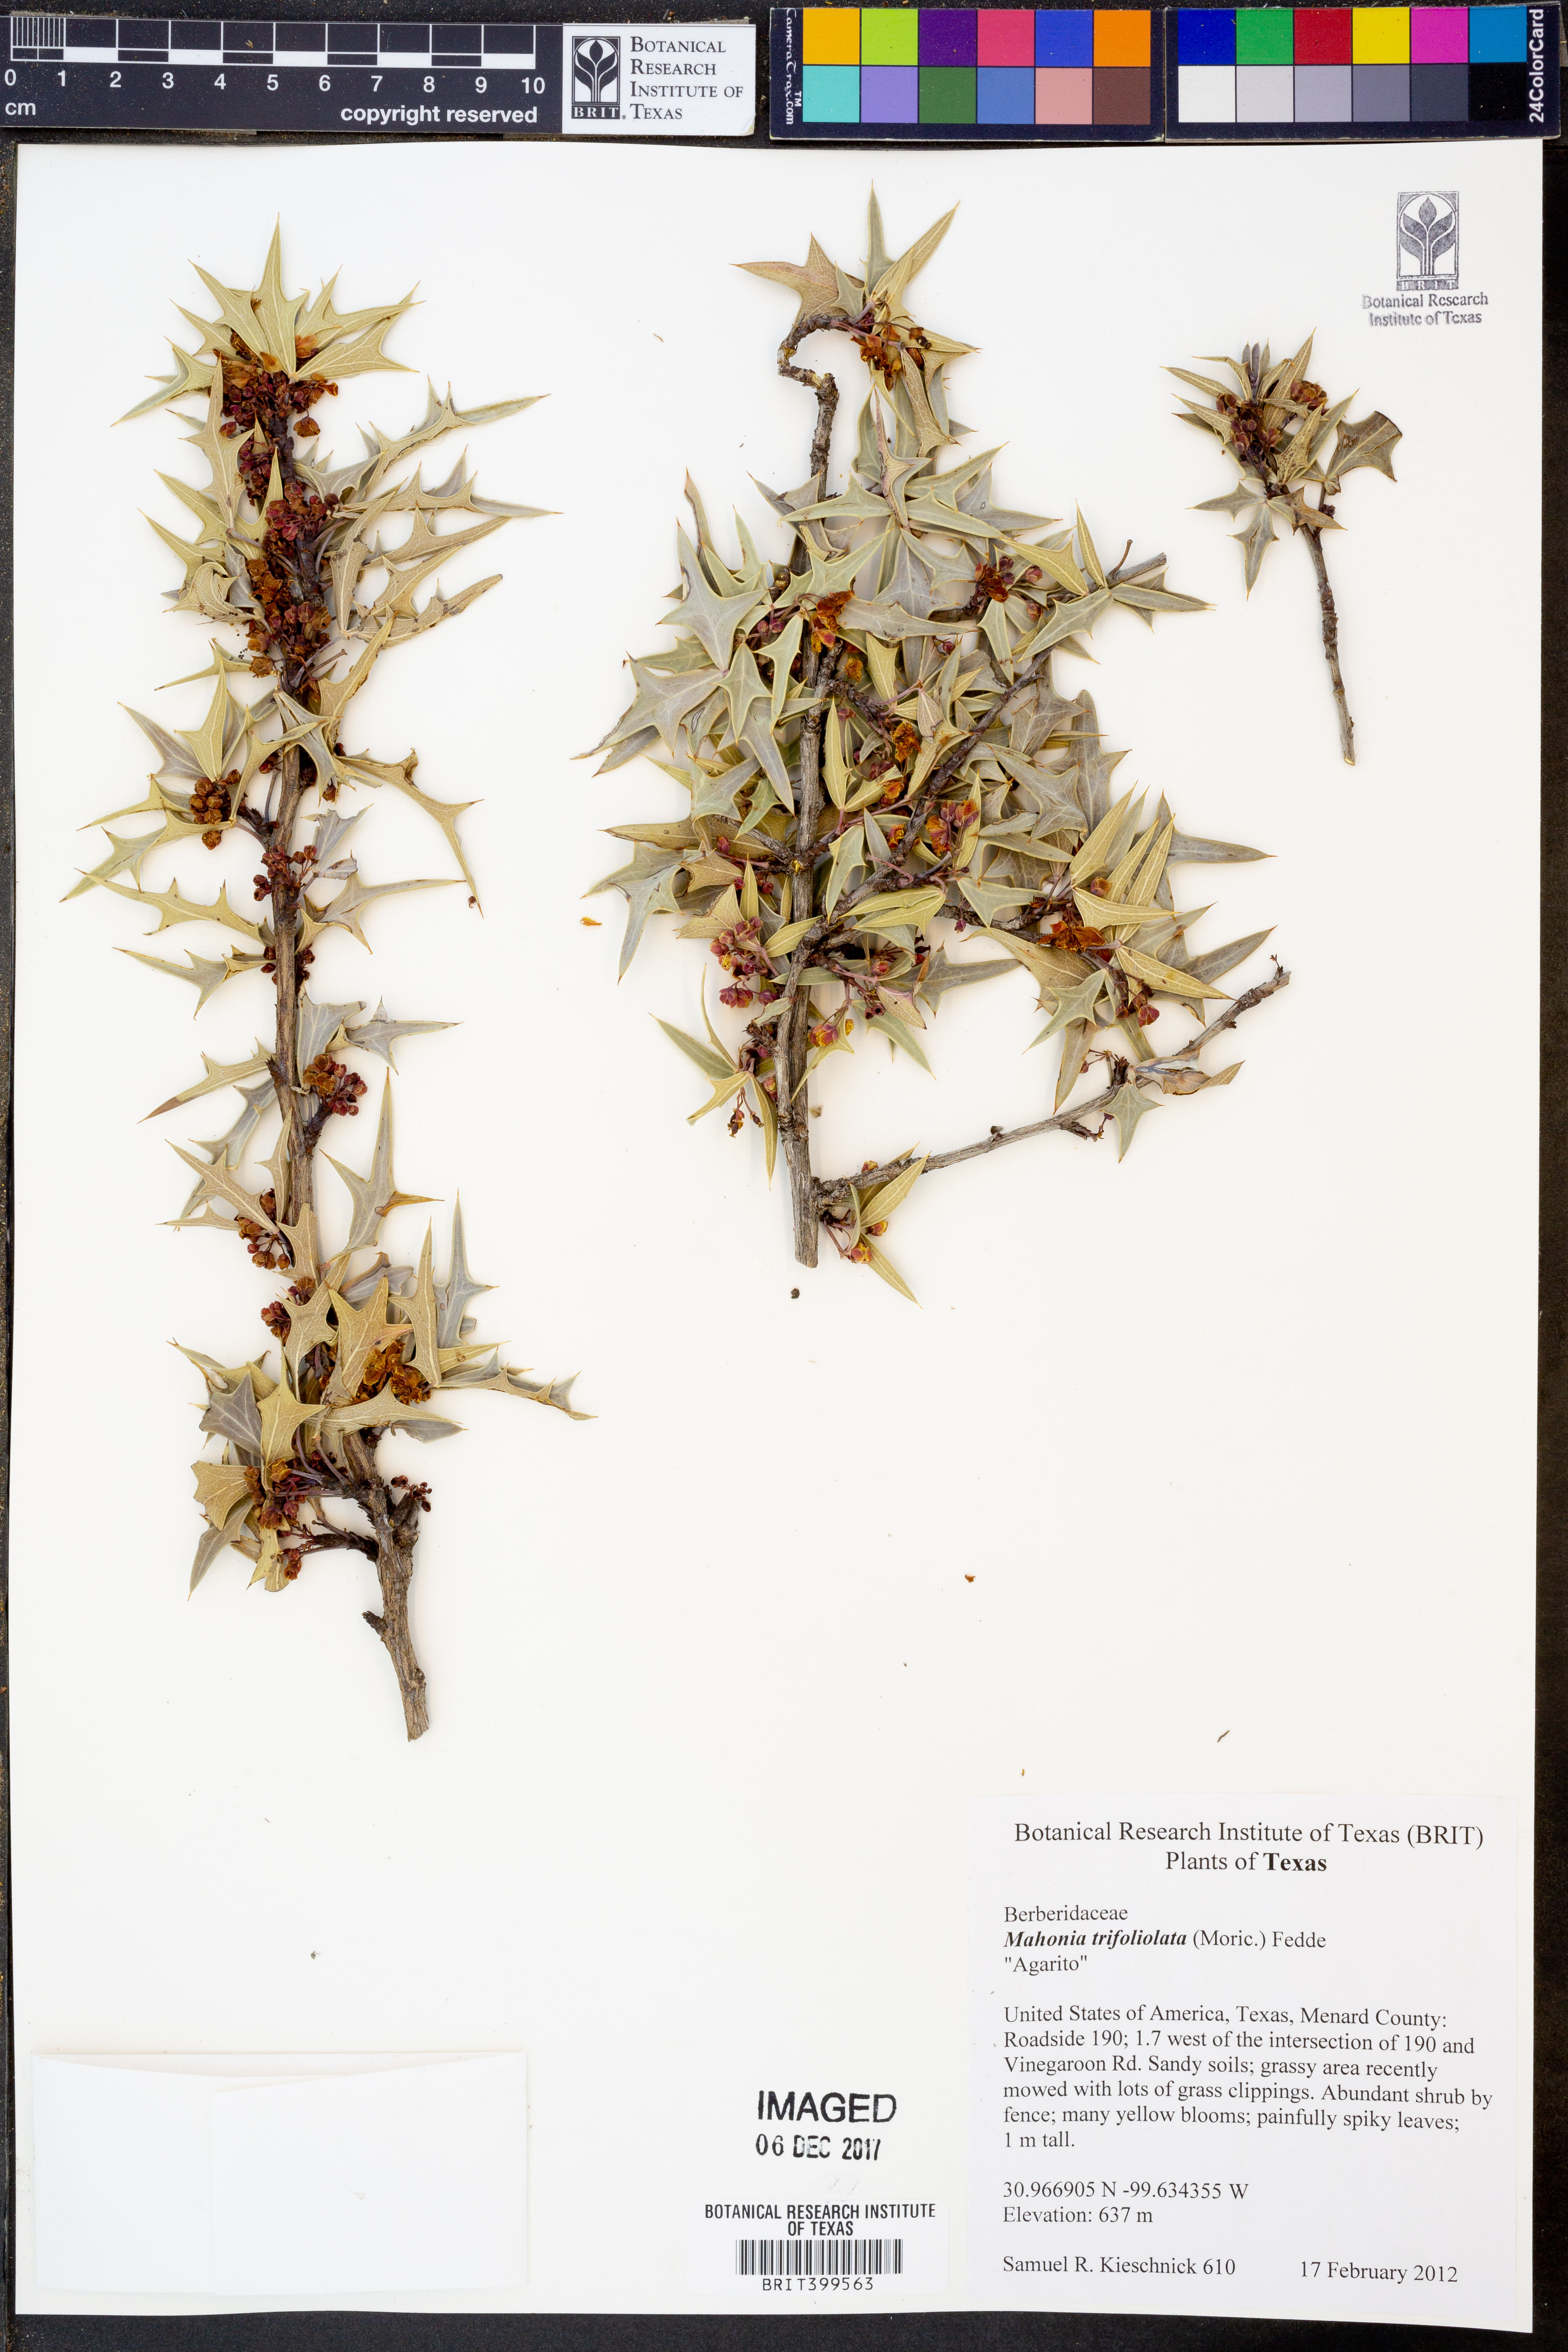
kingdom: Plantae
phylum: Tracheophyta
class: Magnoliopsida
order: Ranunculales
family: Berberidaceae
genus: Mahonia
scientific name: Mahonia trifolia
